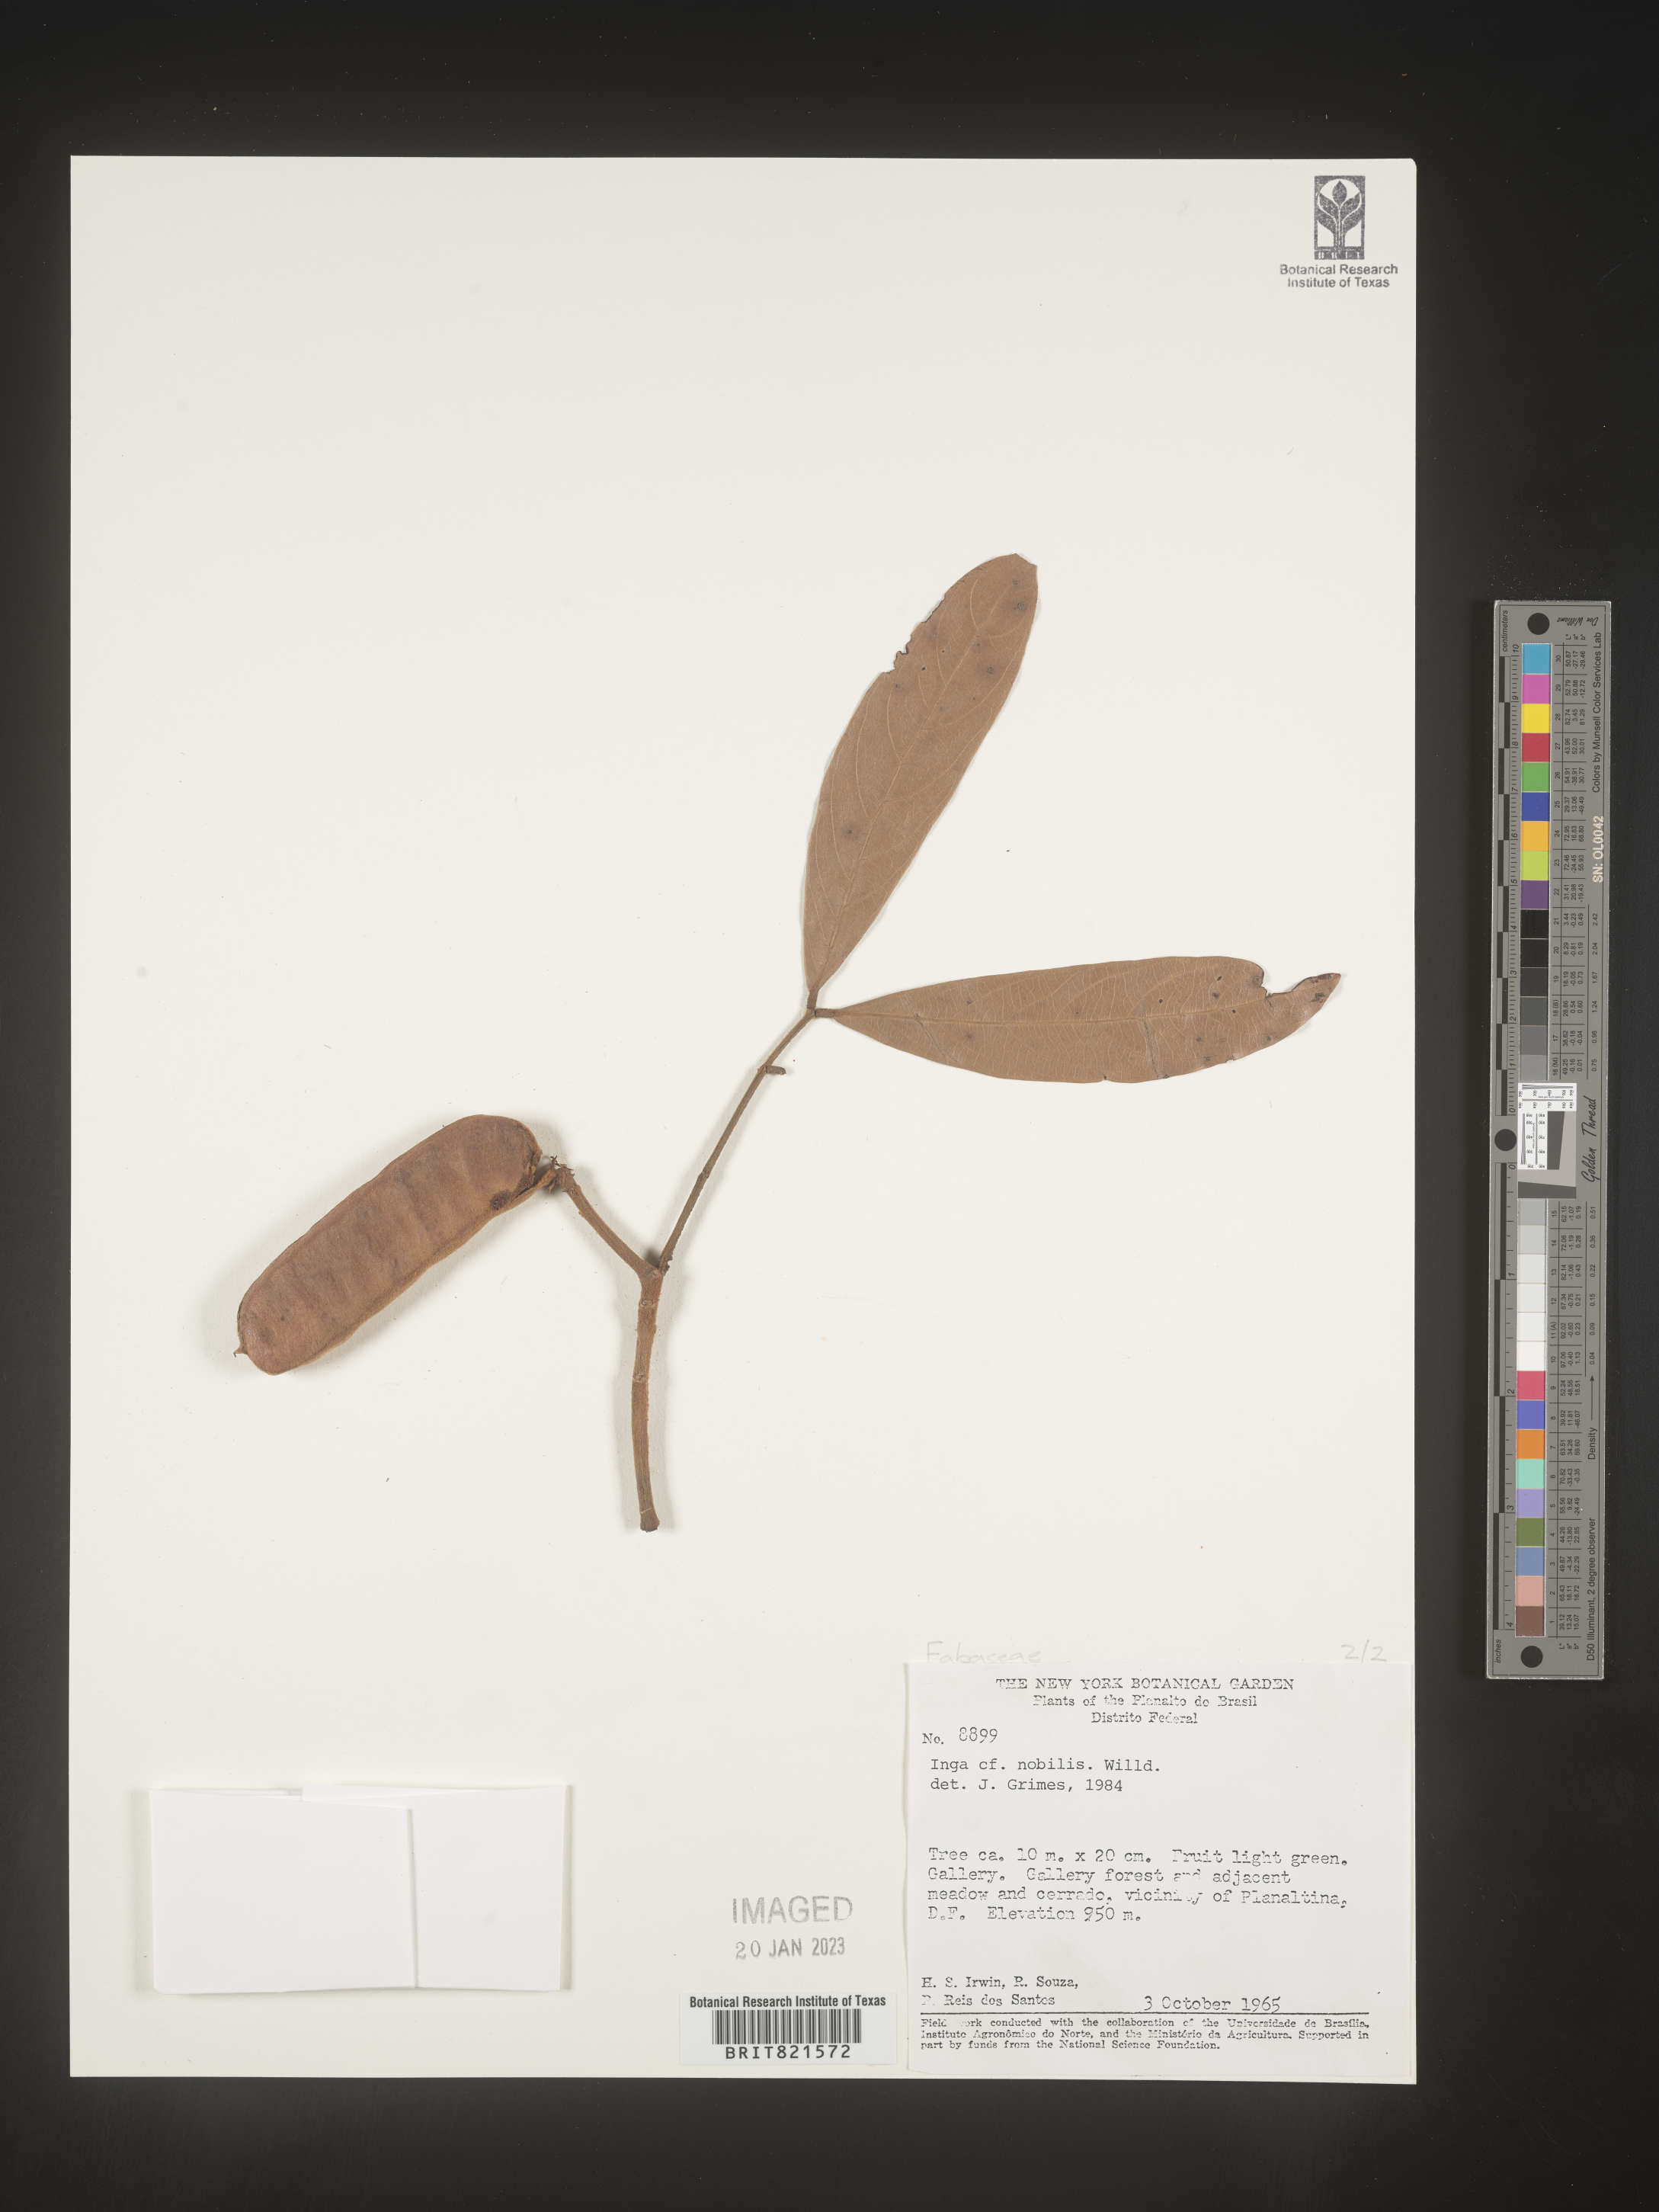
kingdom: Plantae
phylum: Tracheophyta
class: Magnoliopsida
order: Fabales
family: Fabaceae
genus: Inga
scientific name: Inga
